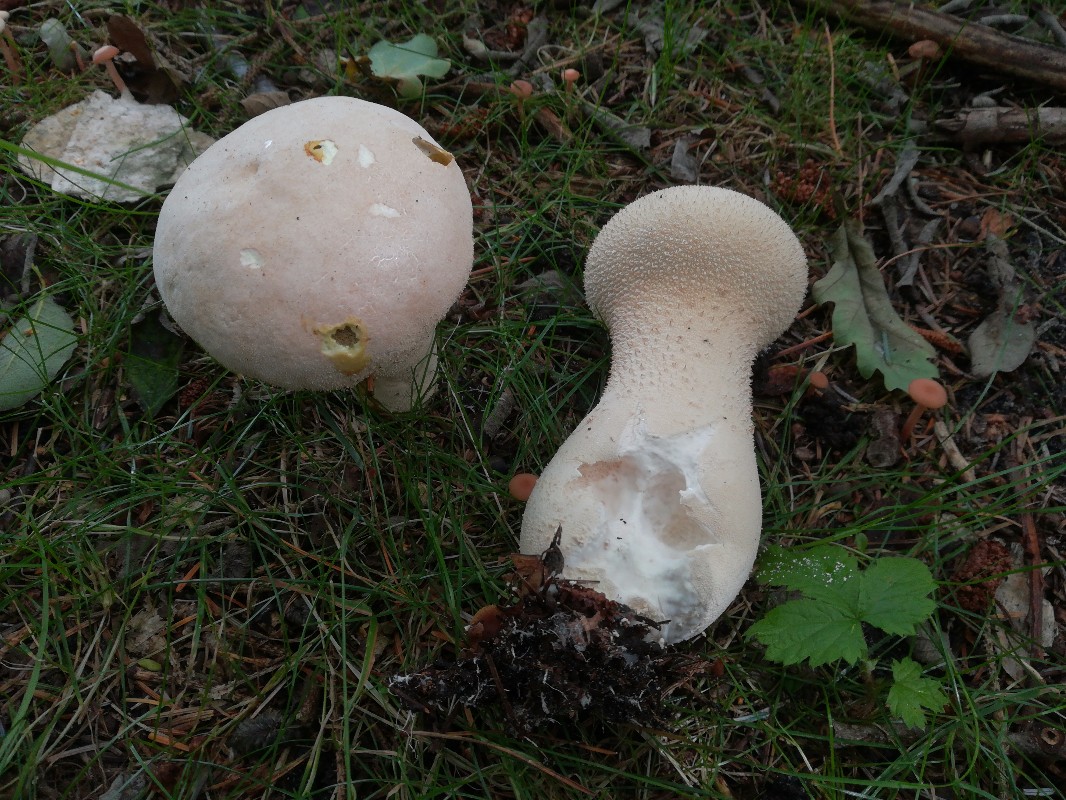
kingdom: Fungi
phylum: Basidiomycota
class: Agaricomycetes
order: Agaricales
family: Lycoperdaceae
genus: Lycoperdon
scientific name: Lycoperdon excipuliforme
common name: højstokket støvbold
